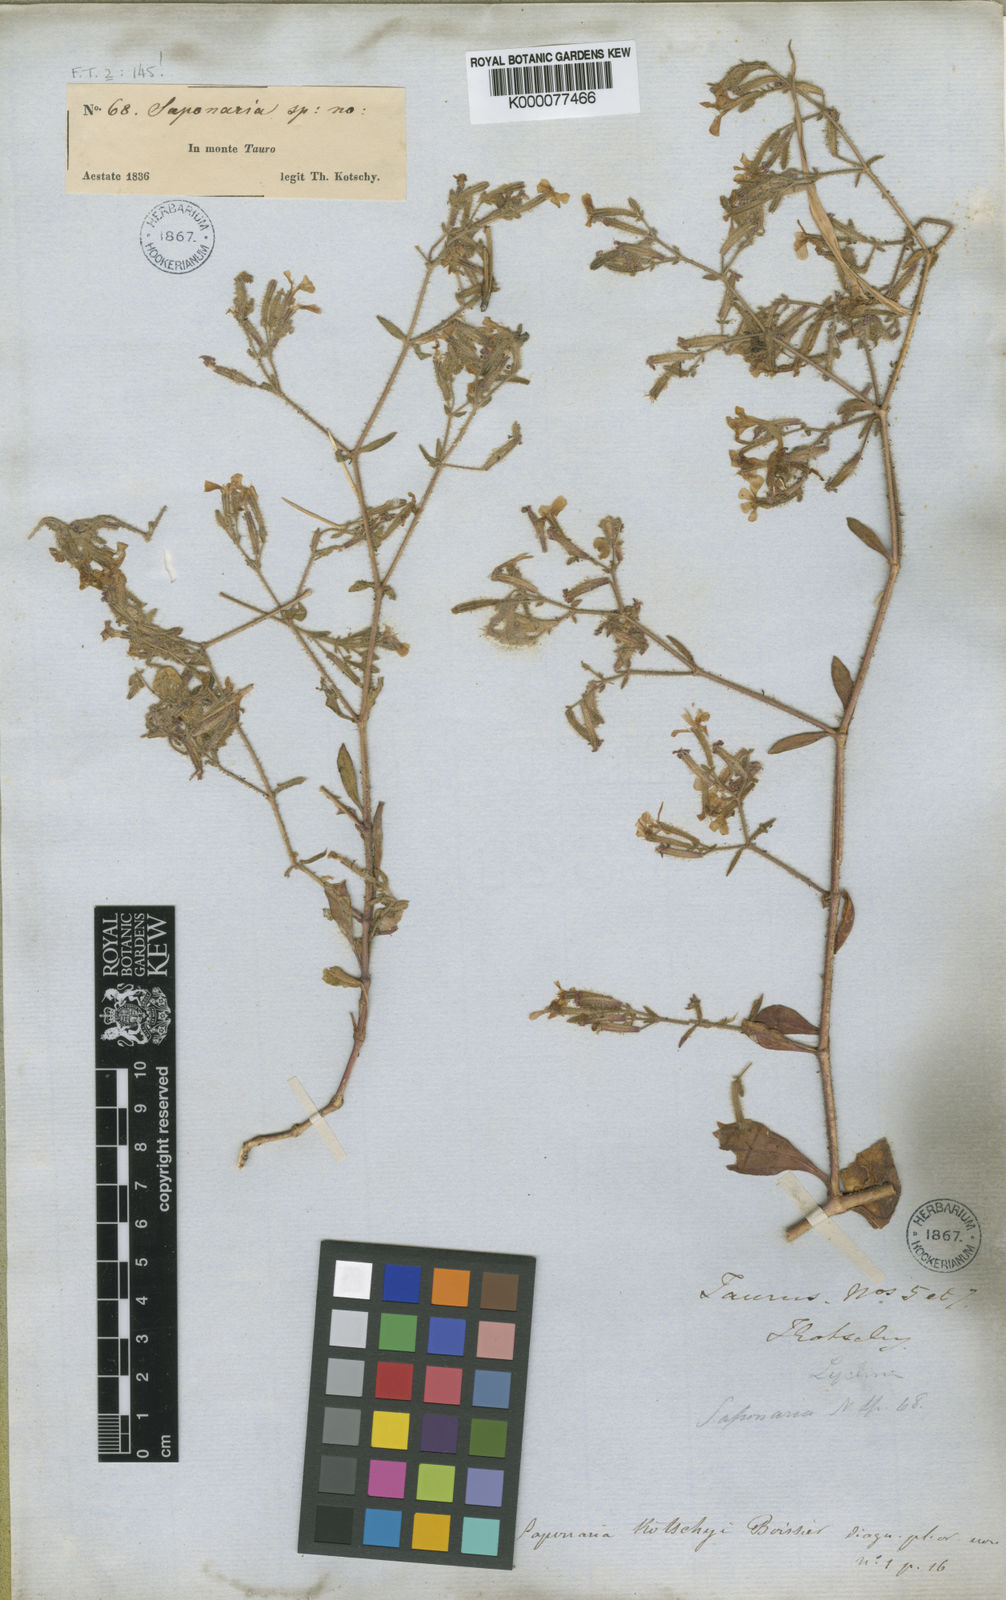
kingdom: Plantae
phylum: Tracheophyta
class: Magnoliopsida
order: Caryophyllales
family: Caryophyllaceae
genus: Saponaria
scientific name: Saponaria kotschyi
